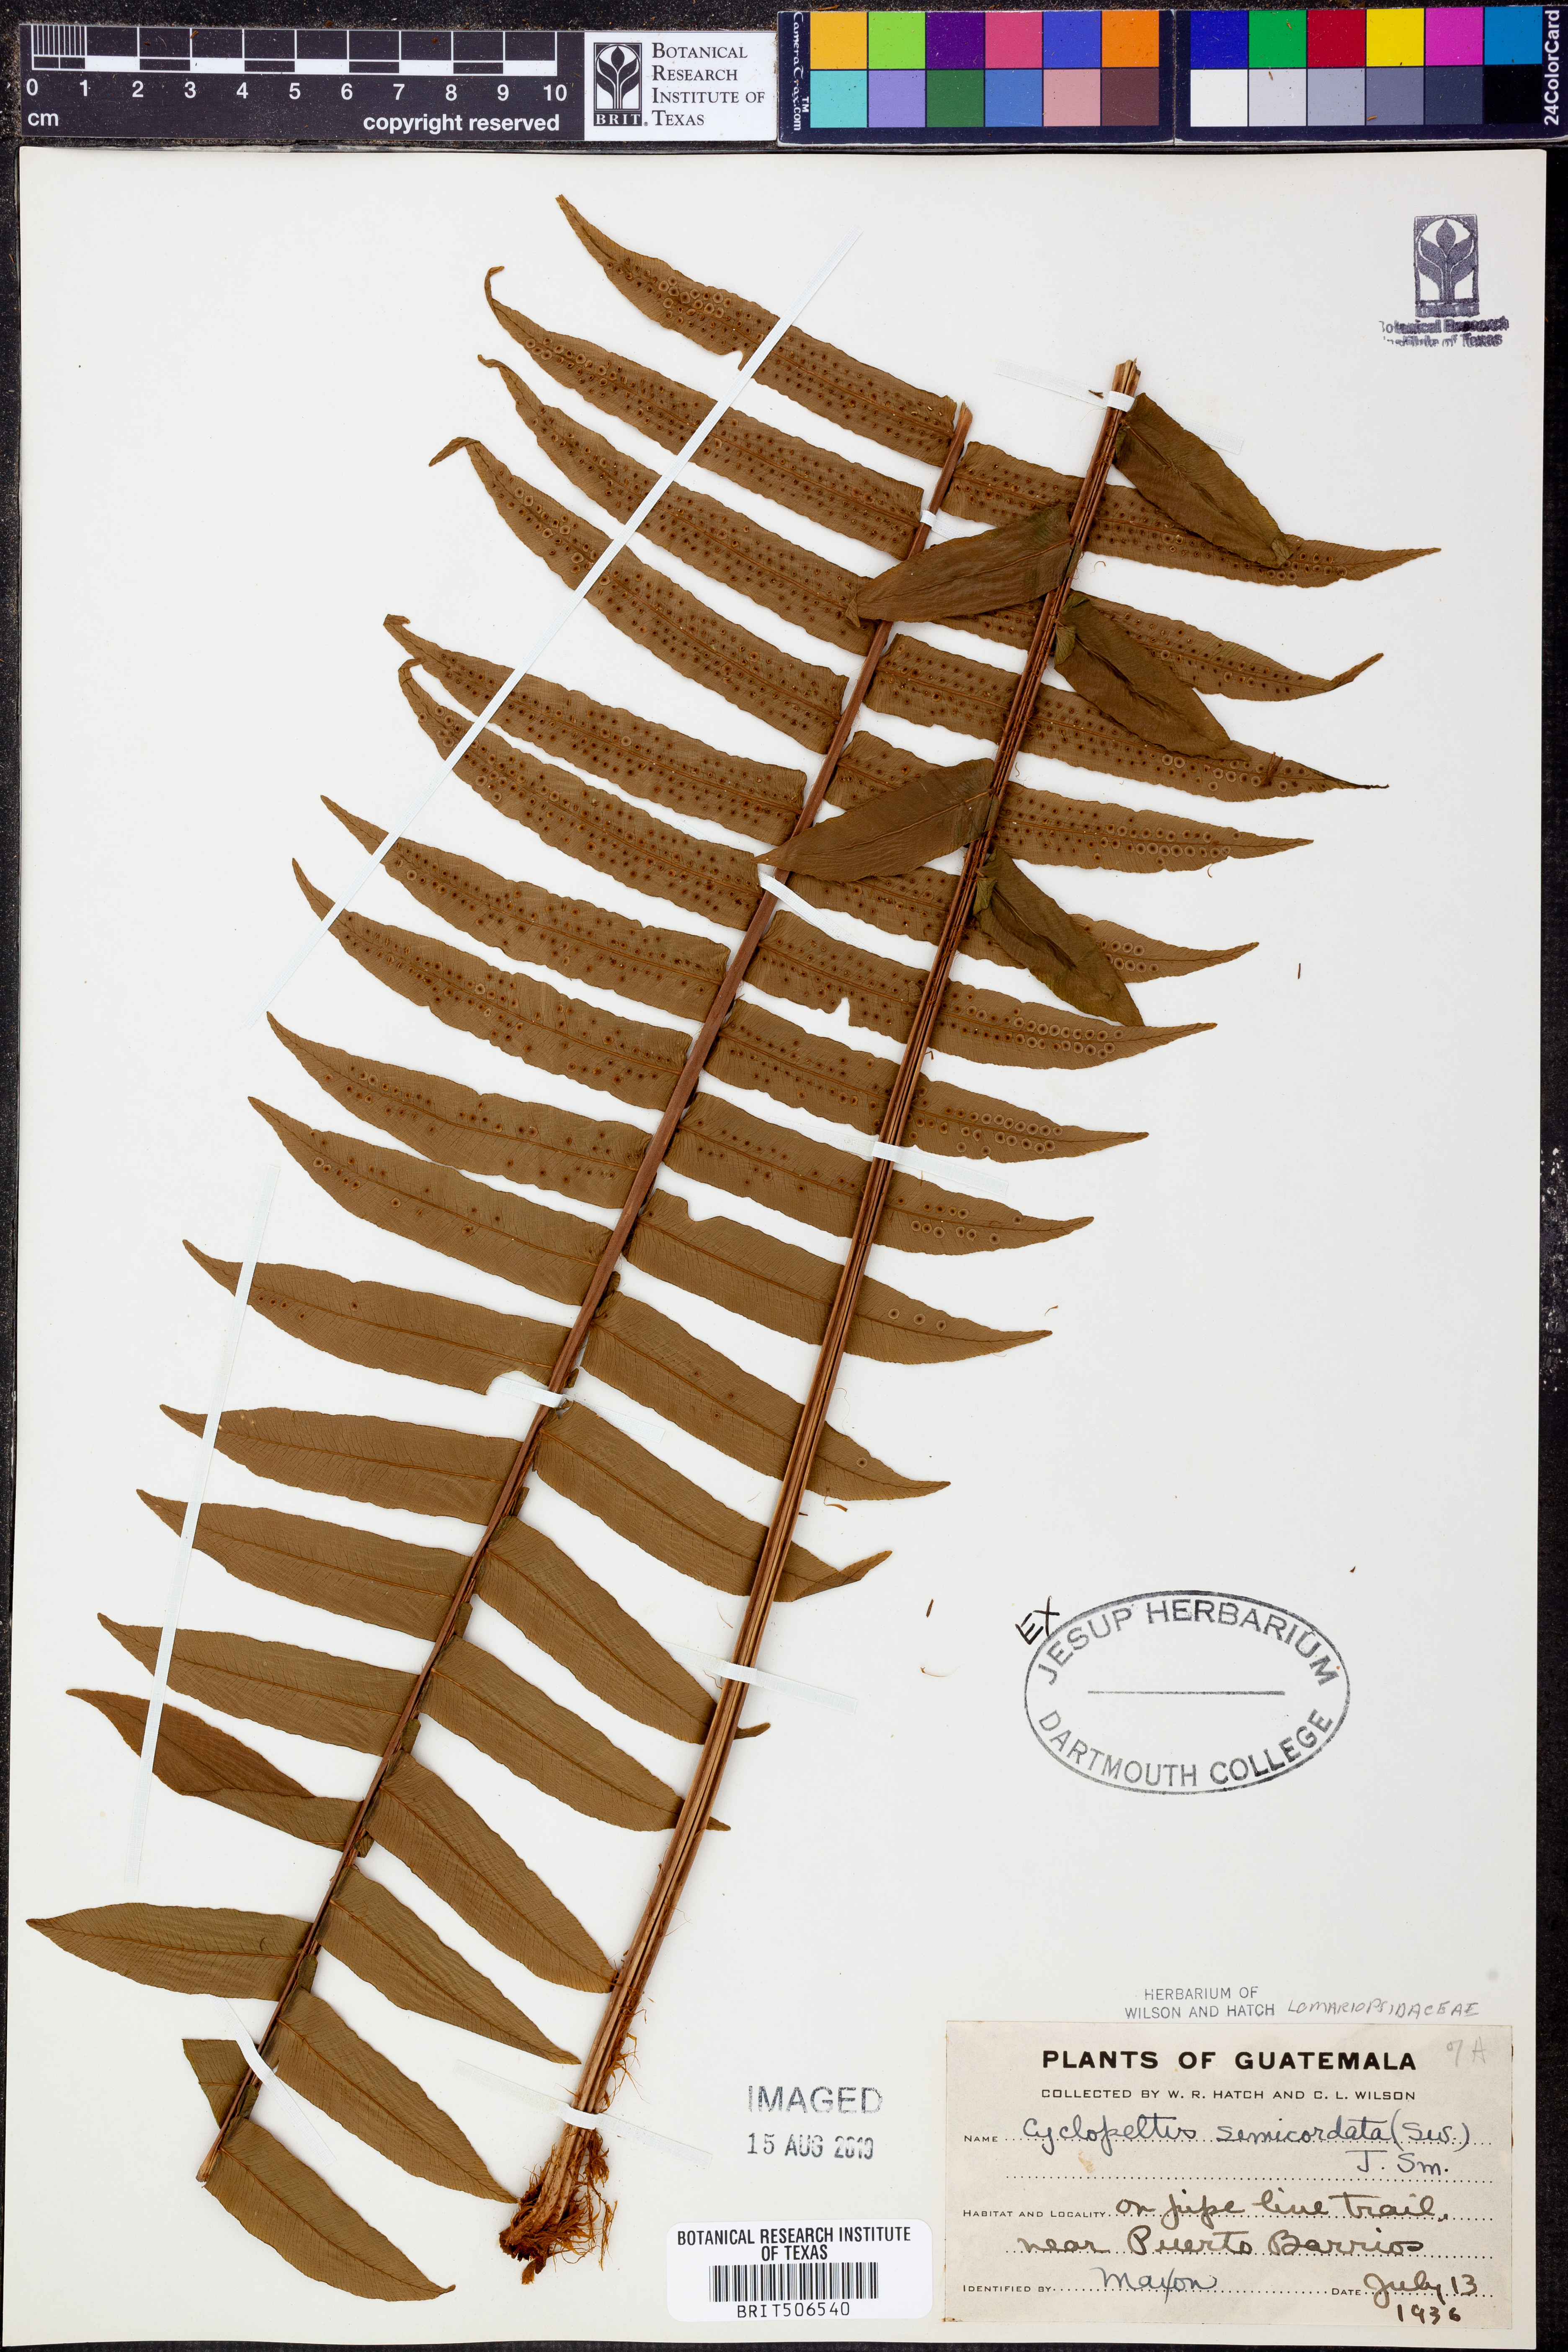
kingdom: Plantae
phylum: Tracheophyta
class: Polypodiopsida
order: Polypodiales
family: Lomariopsidaceae
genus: Cyclopeltis
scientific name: Cyclopeltis semicordata
